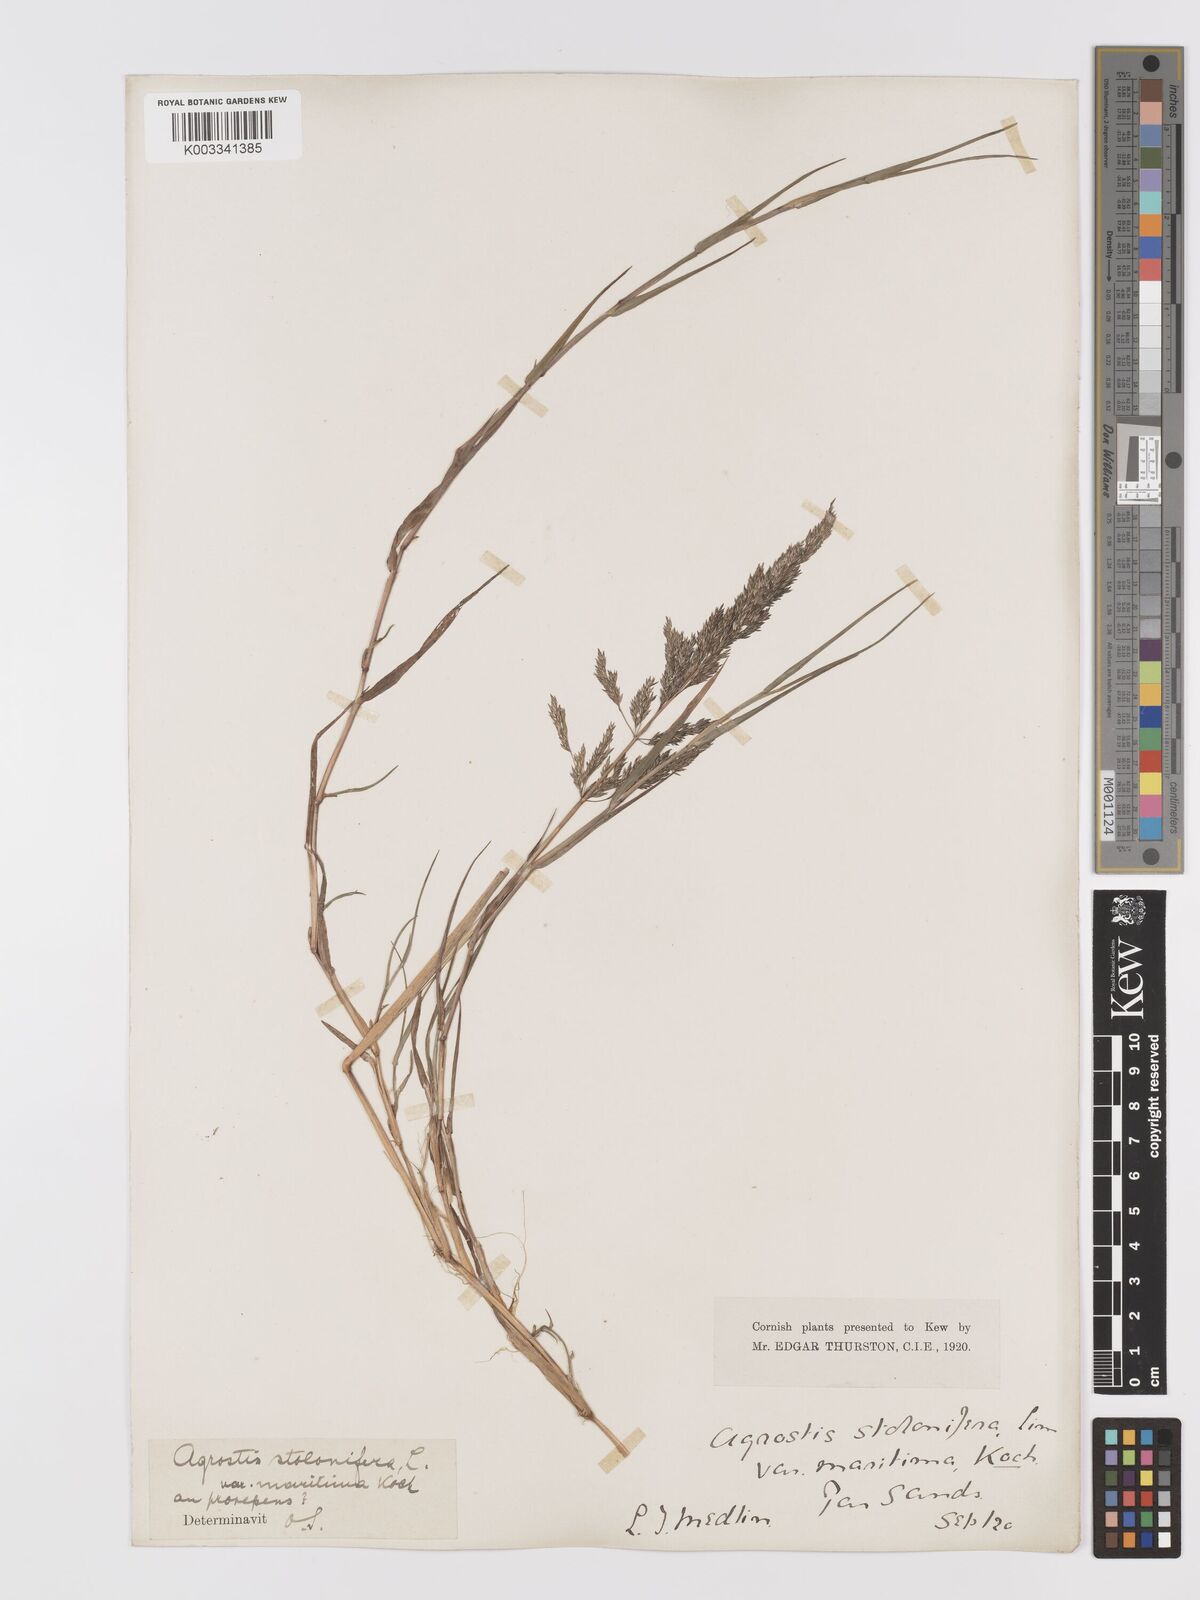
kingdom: Plantae
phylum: Tracheophyta
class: Liliopsida
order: Poales
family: Poaceae
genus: Agrostis
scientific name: Agrostis stolonifera
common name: Creeping bentgrass
